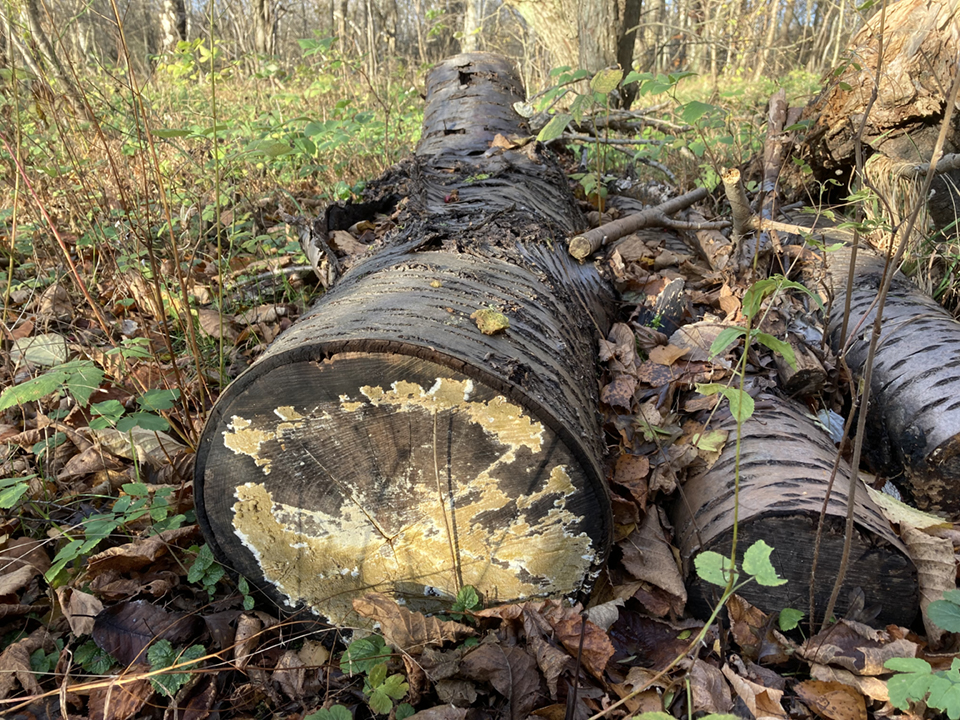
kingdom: Fungi
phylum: Basidiomycota
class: Agaricomycetes
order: Boletales
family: Coniophoraceae
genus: Coniophora
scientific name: Coniophora puteana
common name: gul tømmersvamp
